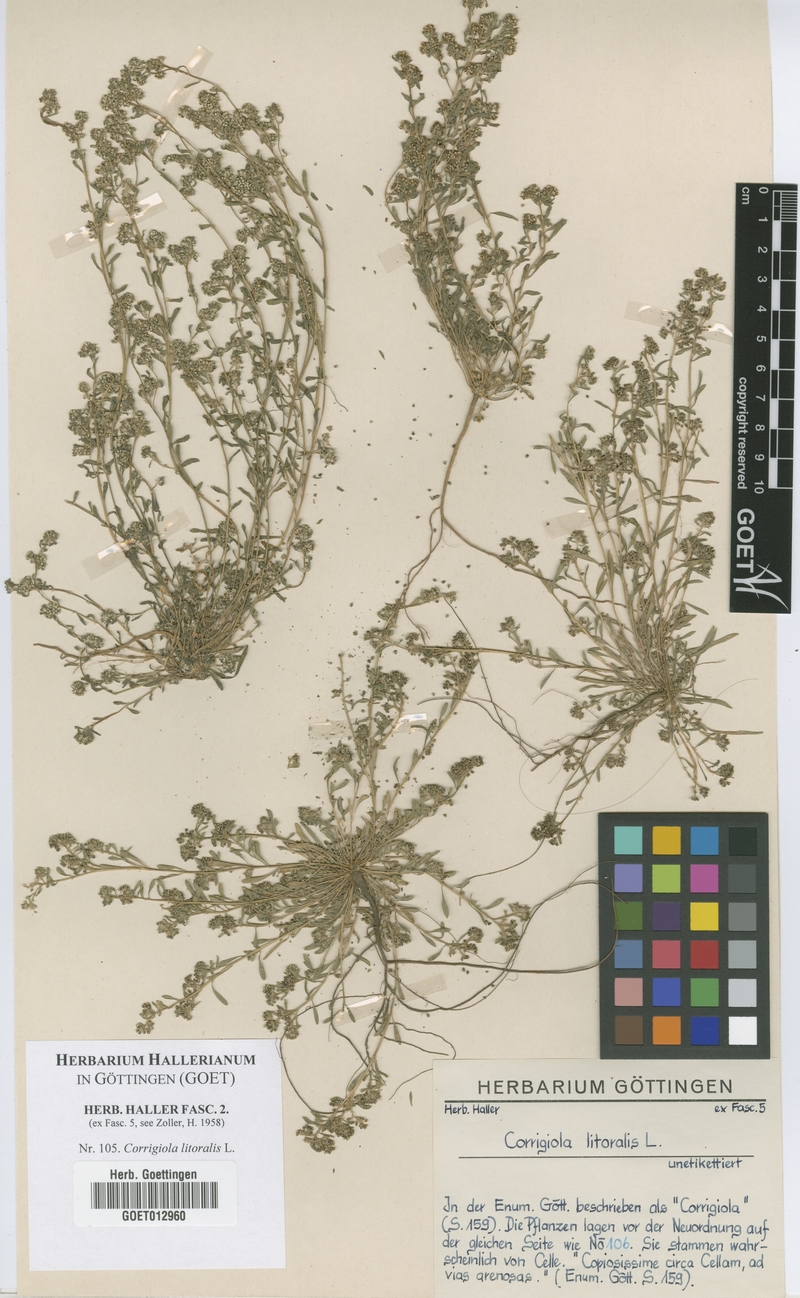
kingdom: Plantae
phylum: Tracheophyta
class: Magnoliopsida
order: Caryophyllales
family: Caryophyllaceae
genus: Corrigiola
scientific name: Corrigiola litoralis
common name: Strapwort
